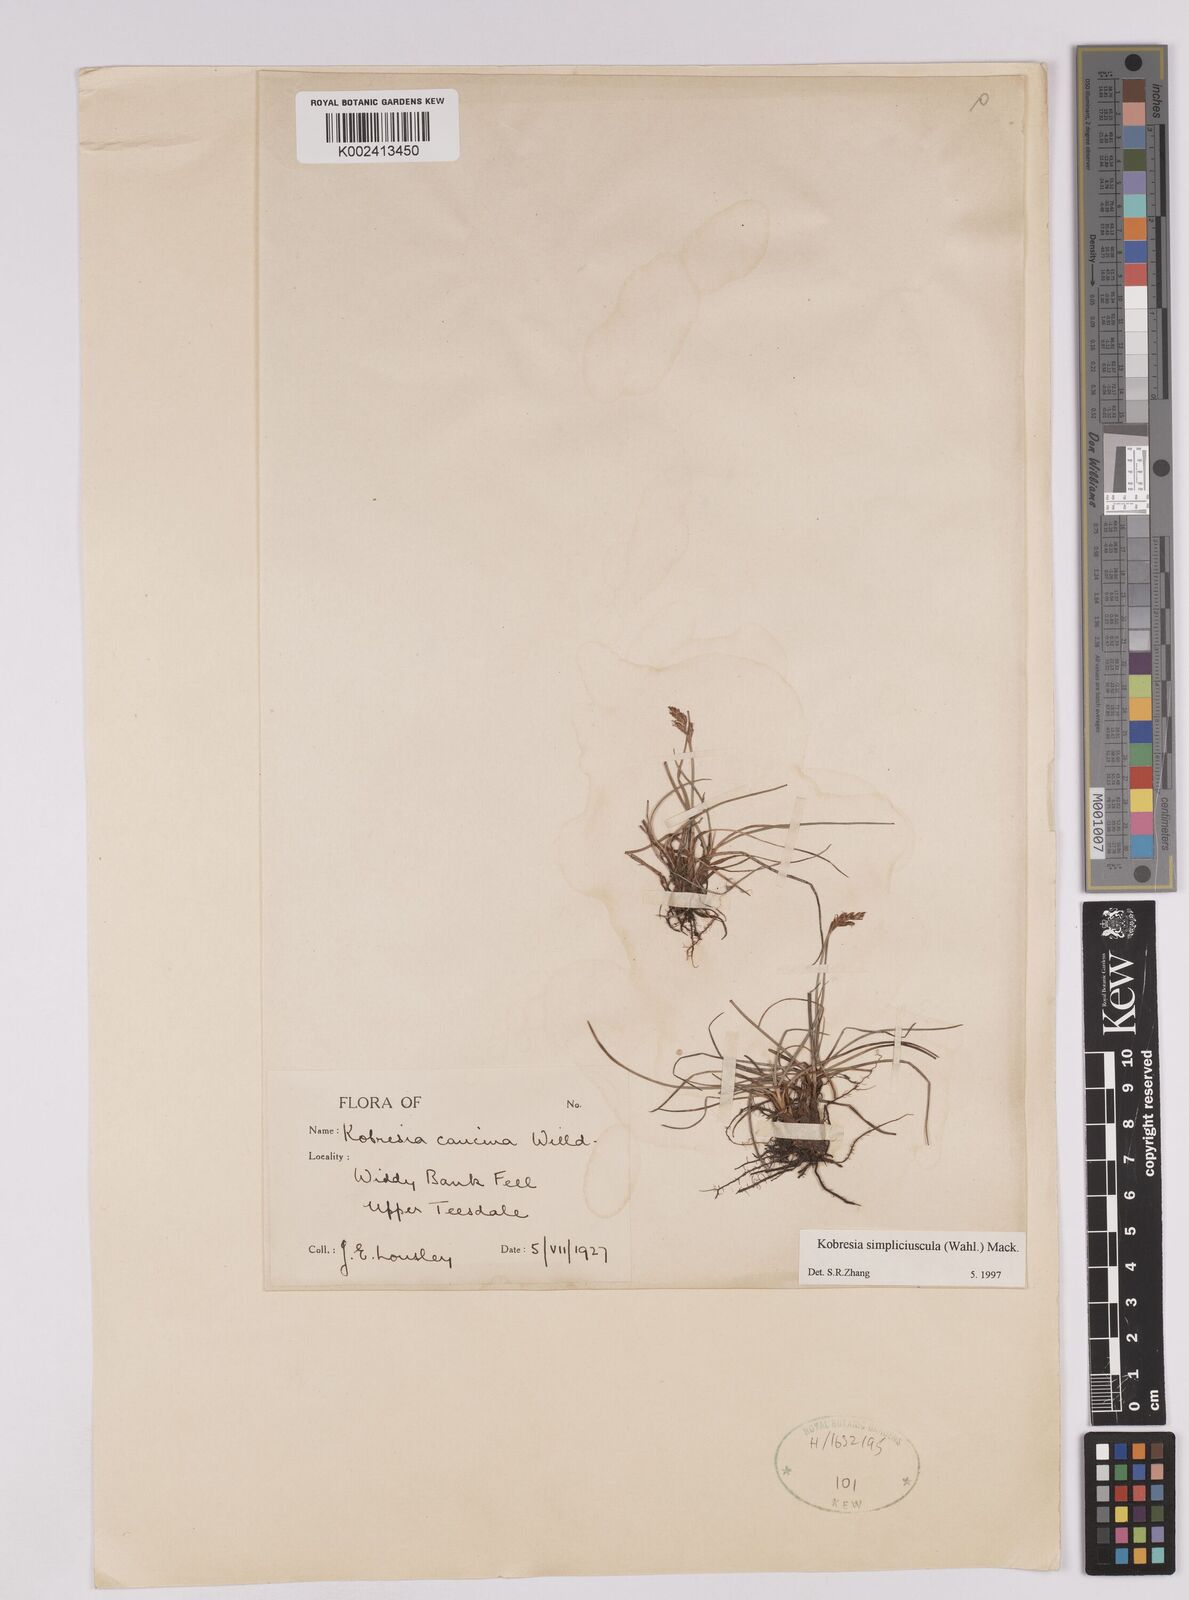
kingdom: Plantae
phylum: Tracheophyta
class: Liliopsida
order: Poales
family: Cyperaceae
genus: Carex
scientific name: Carex simpliciuscula
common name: Simple bog sedge
